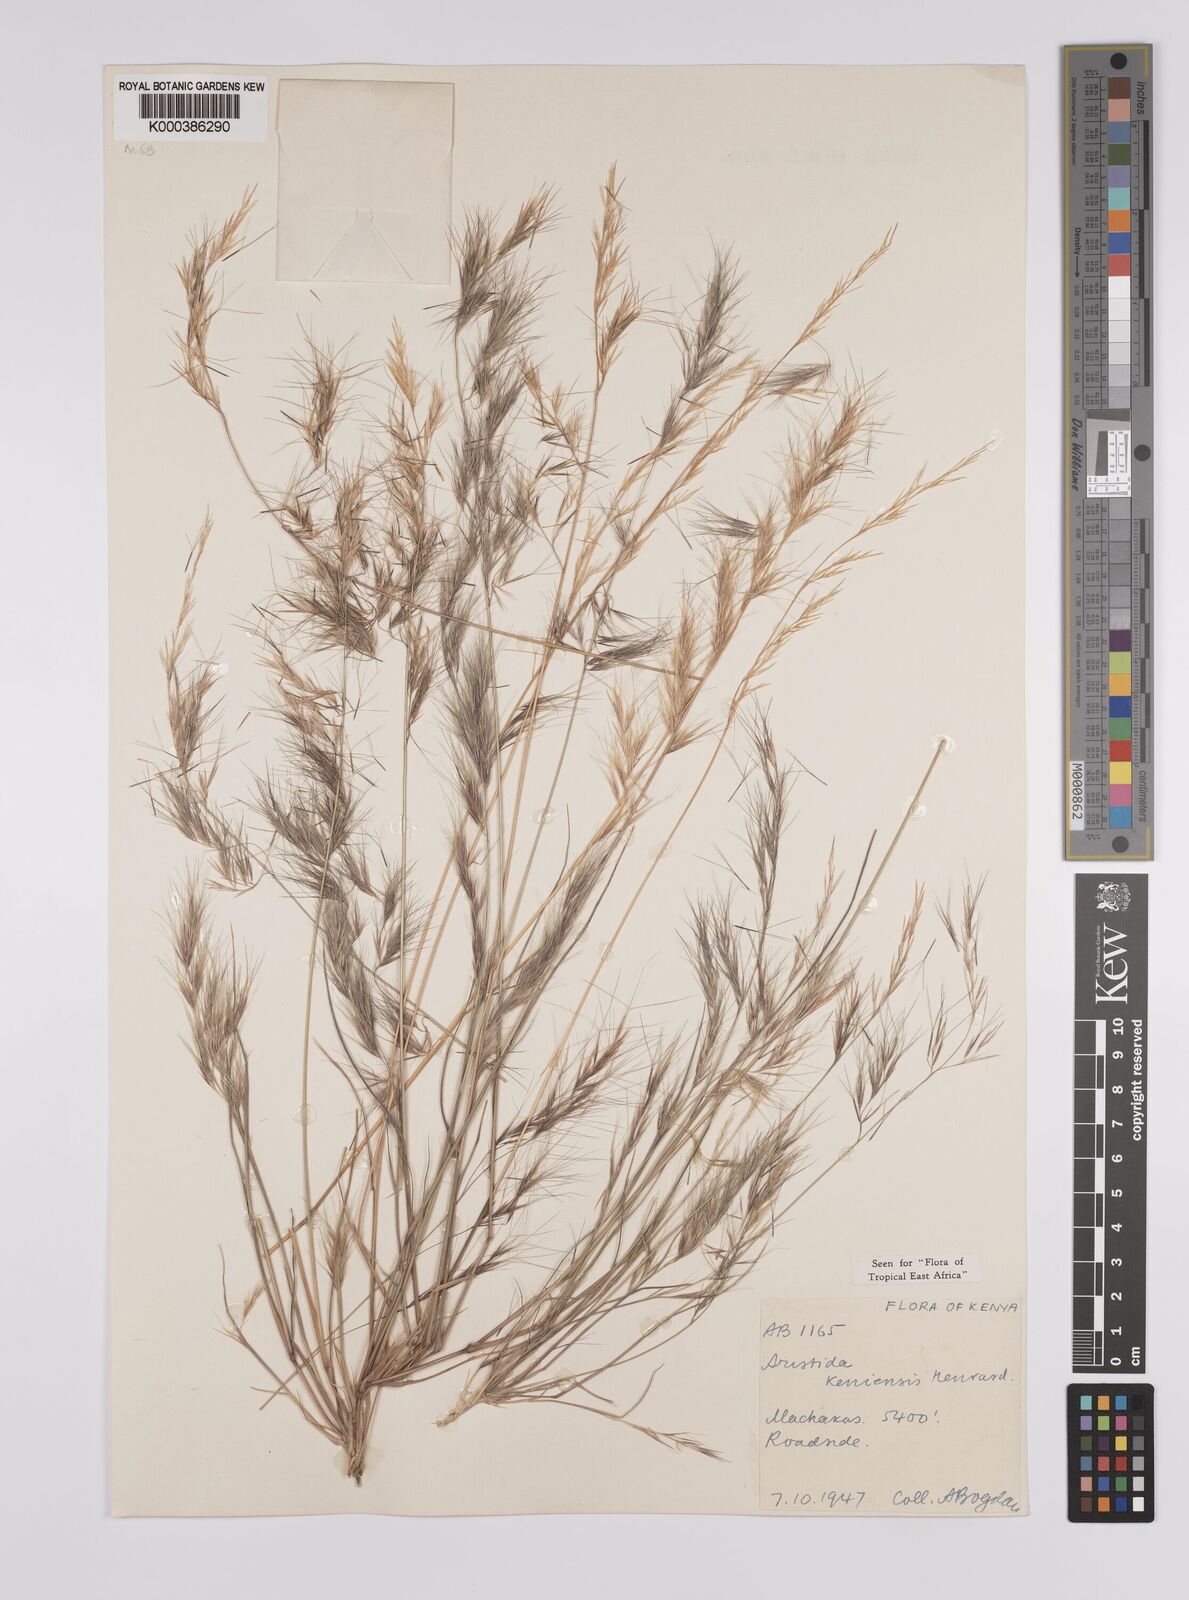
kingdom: Plantae
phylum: Tracheophyta
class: Liliopsida
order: Poales
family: Poaceae
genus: Aristida
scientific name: Aristida kenyensis
